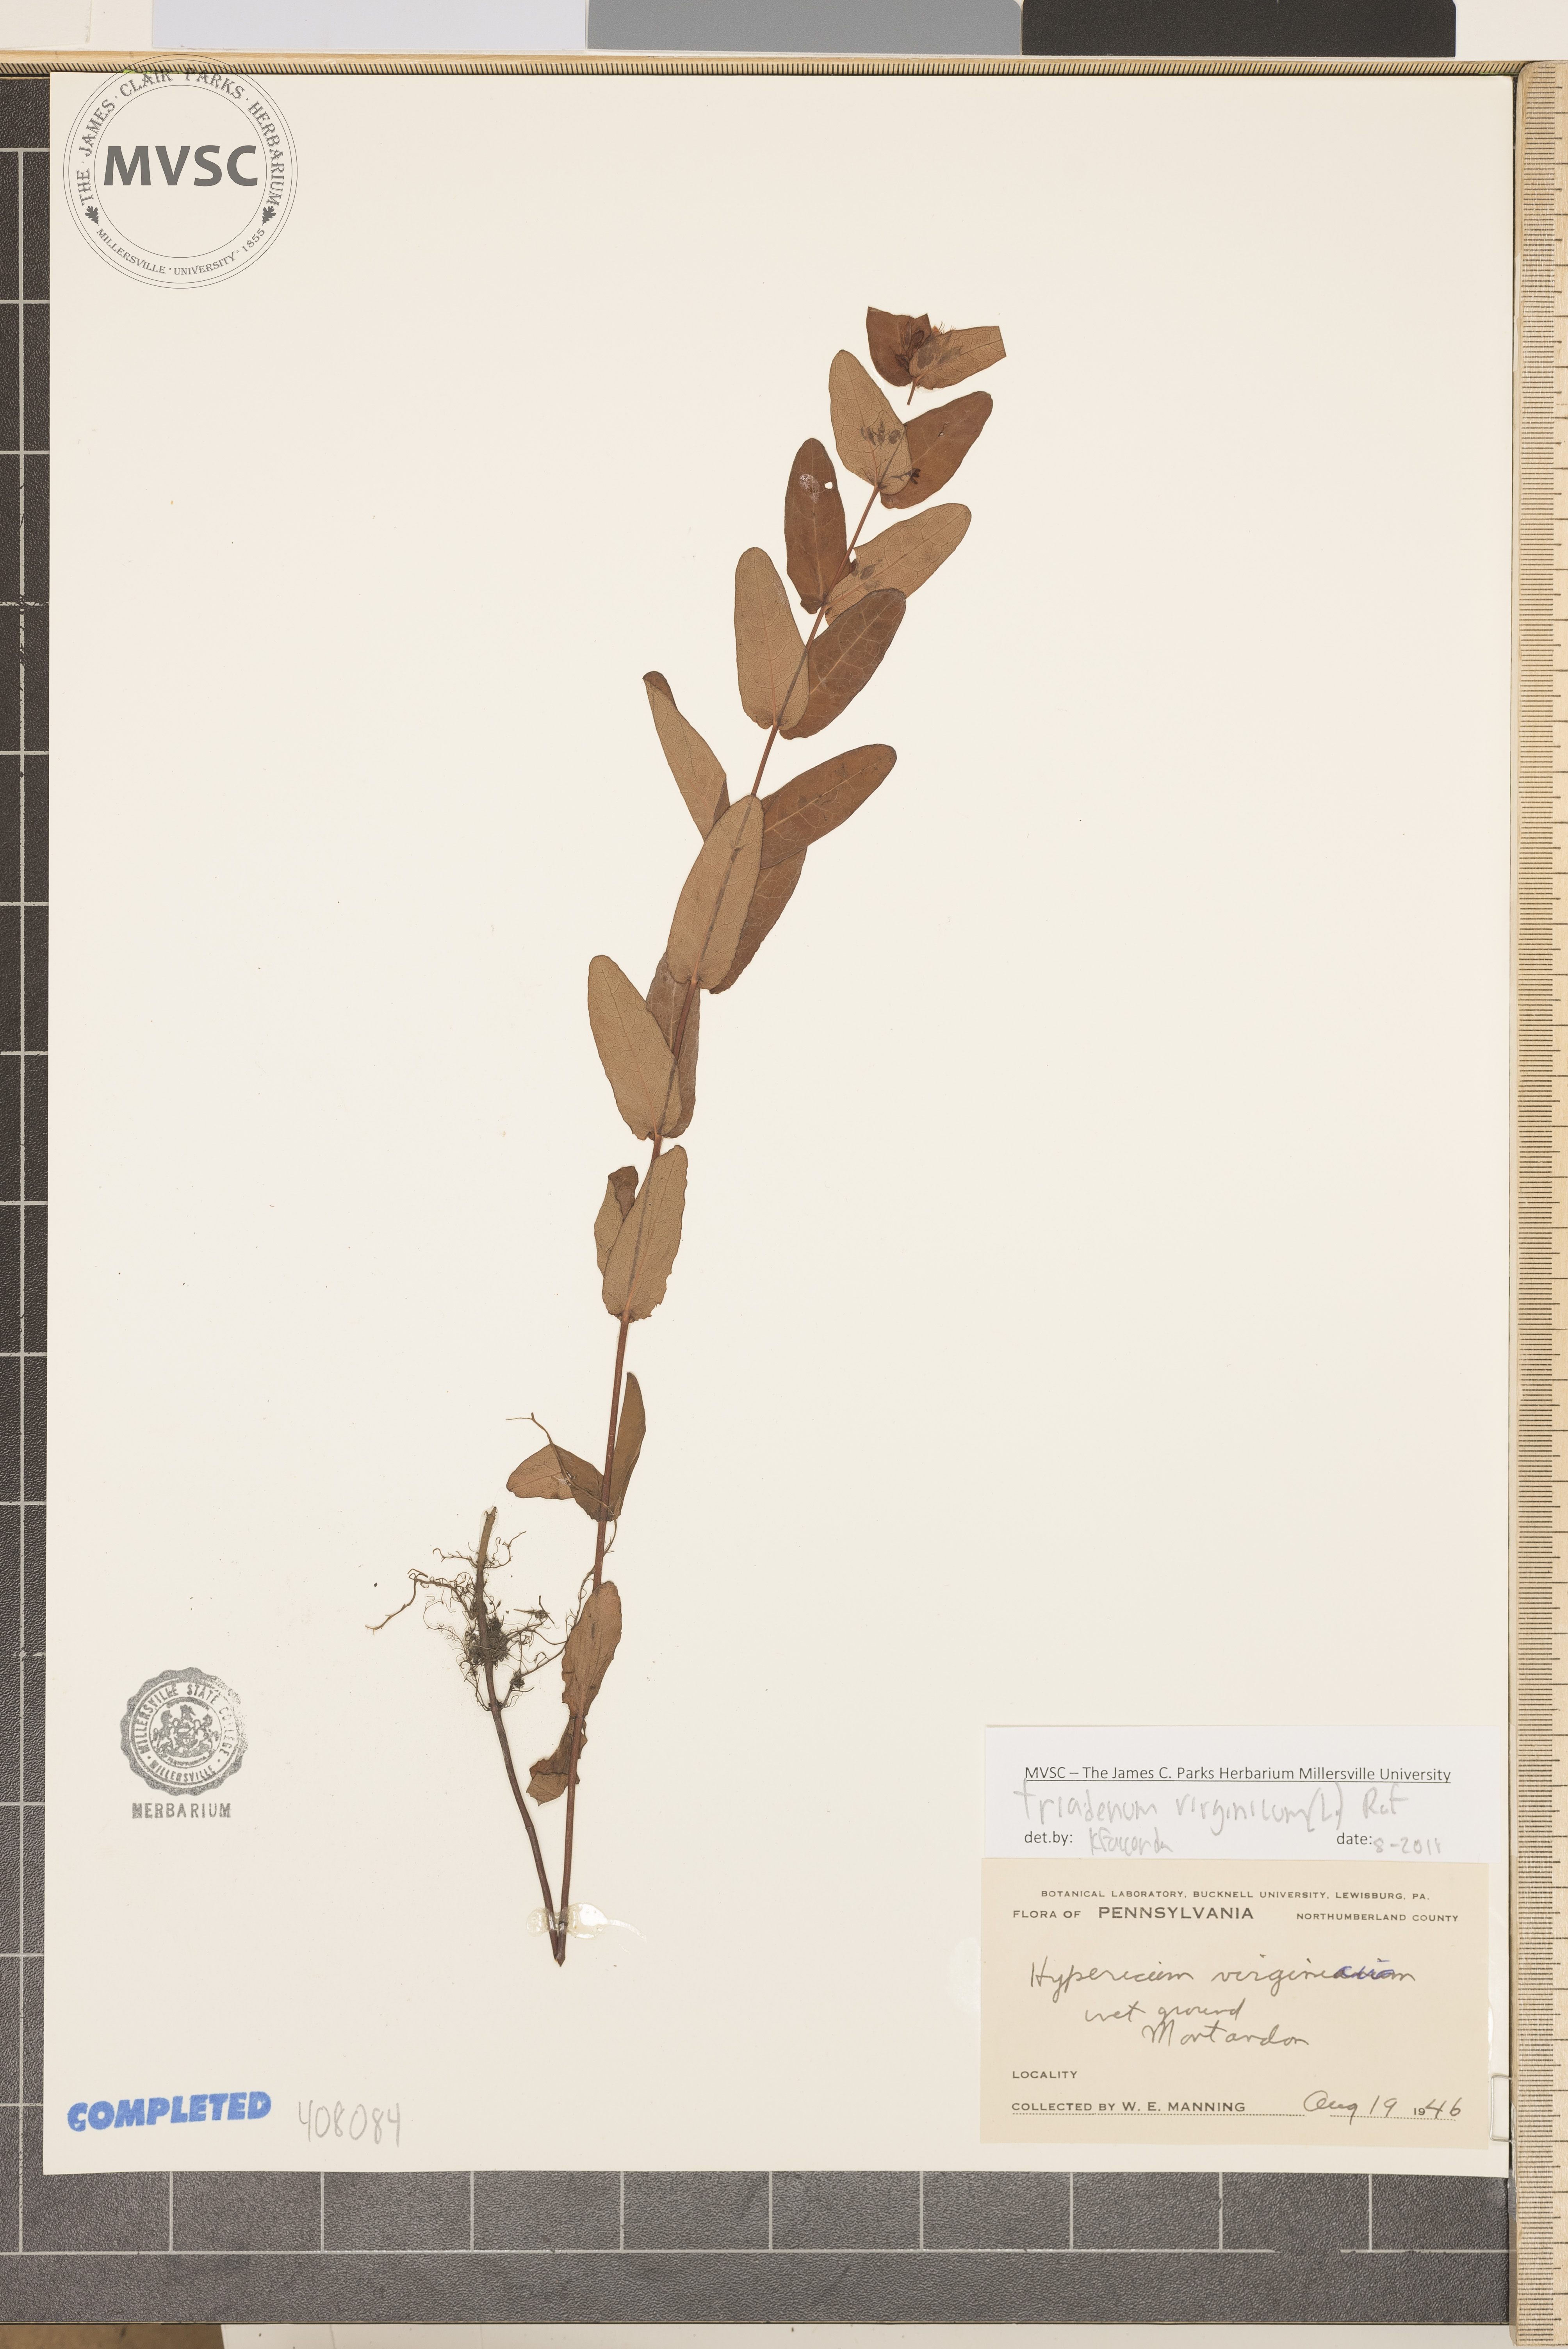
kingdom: Plantae
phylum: Tracheophyta
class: Magnoliopsida
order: Malpighiales
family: Hypericaceae
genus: Triadenum
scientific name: Triadenum virginicum
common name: Virginia Marsh St. John's-wort
